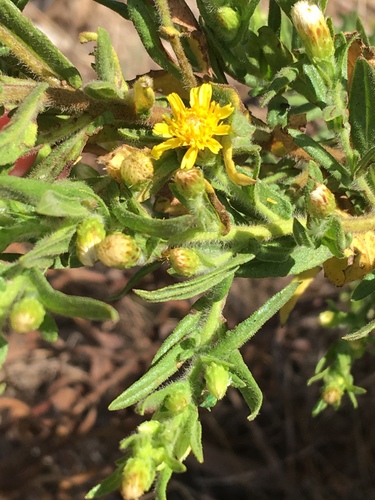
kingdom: Plantae
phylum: Tracheophyta
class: Magnoliopsida
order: Asterales
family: Asteraceae
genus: Dittrichia
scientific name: Dittrichia viscosa
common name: Woody fleabane
